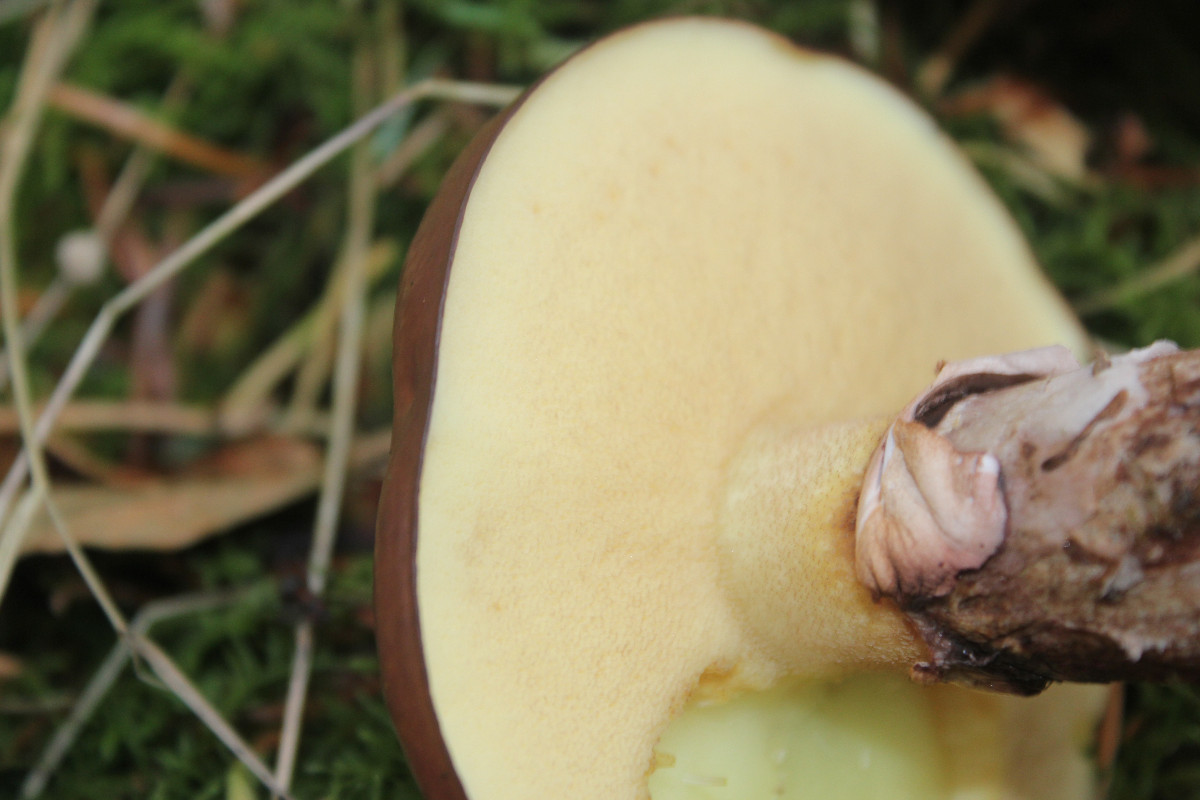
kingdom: Fungi
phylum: Basidiomycota
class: Agaricomycetes
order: Boletales
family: Suillaceae
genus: Suillus
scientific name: Suillus luteus
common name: brungul slimrørhat
